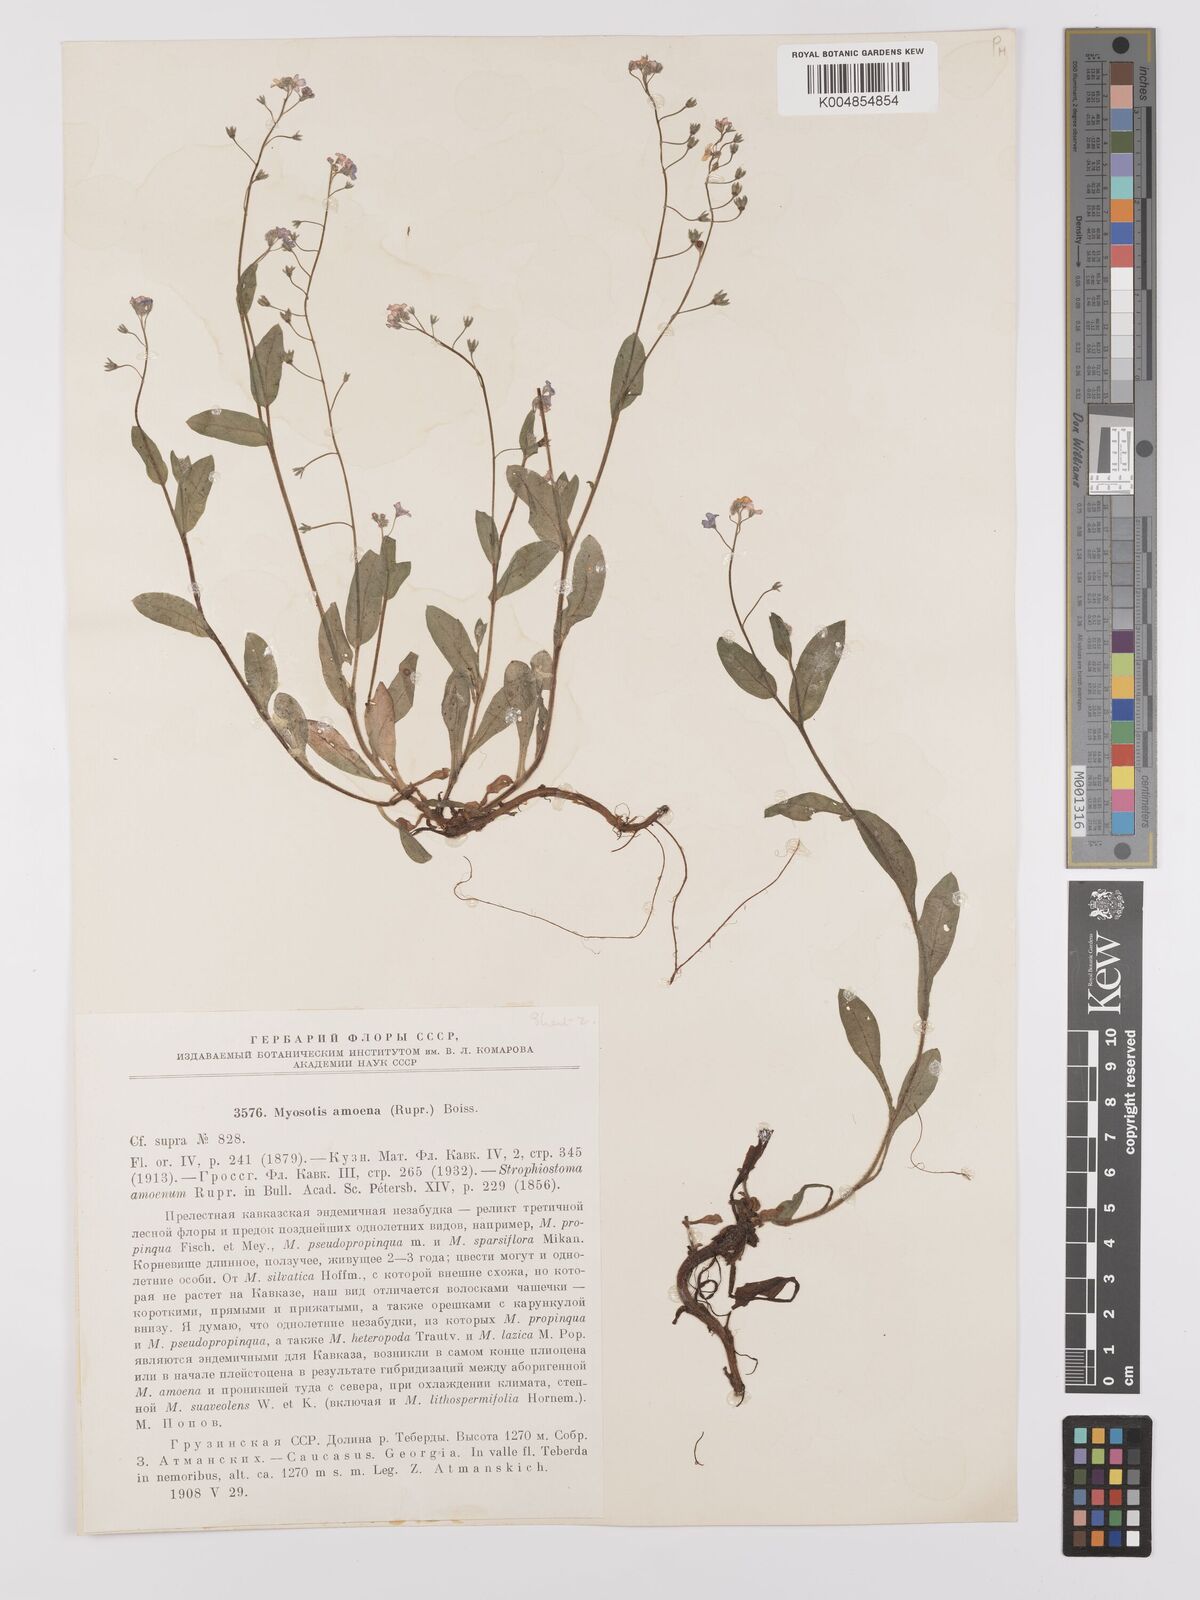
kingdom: Plantae
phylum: Tracheophyta
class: Magnoliopsida
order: Boraginales
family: Boraginaceae
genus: Myosotis
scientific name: Myosotis
